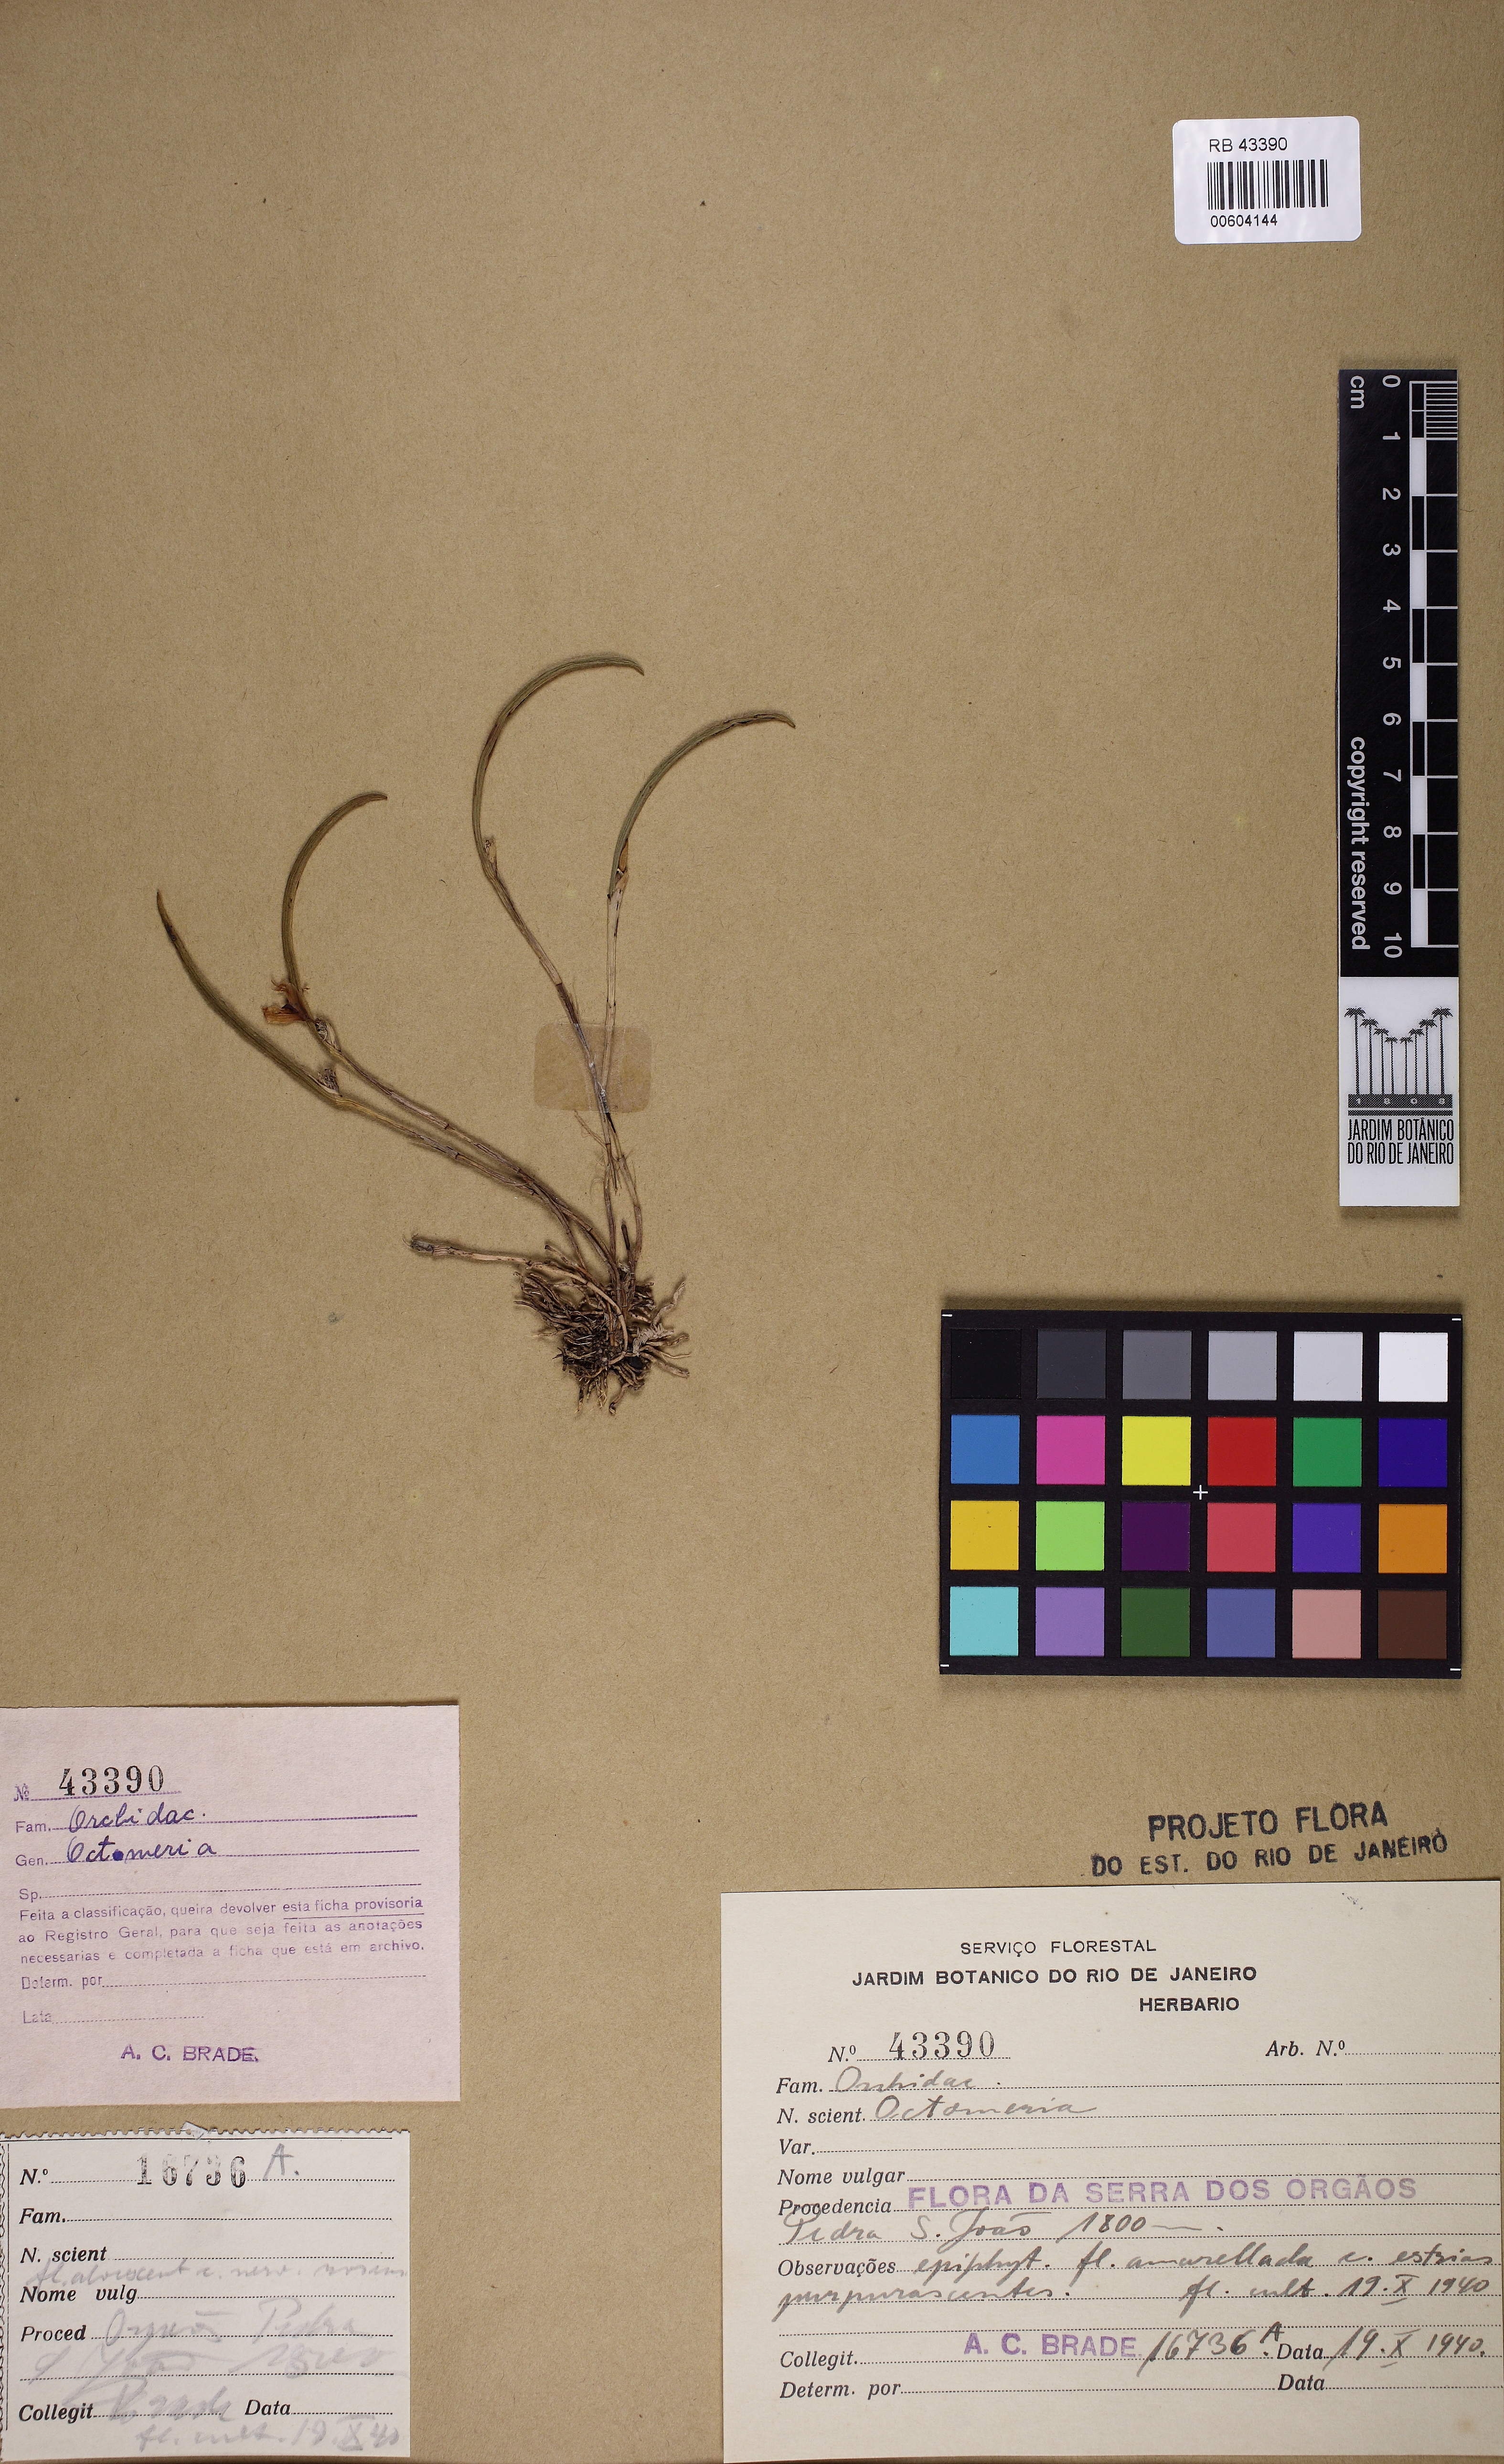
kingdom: Plantae
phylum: Tracheophyta
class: Liliopsida
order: Asparagales
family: Orchidaceae
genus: Octomeria
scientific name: Octomeria
